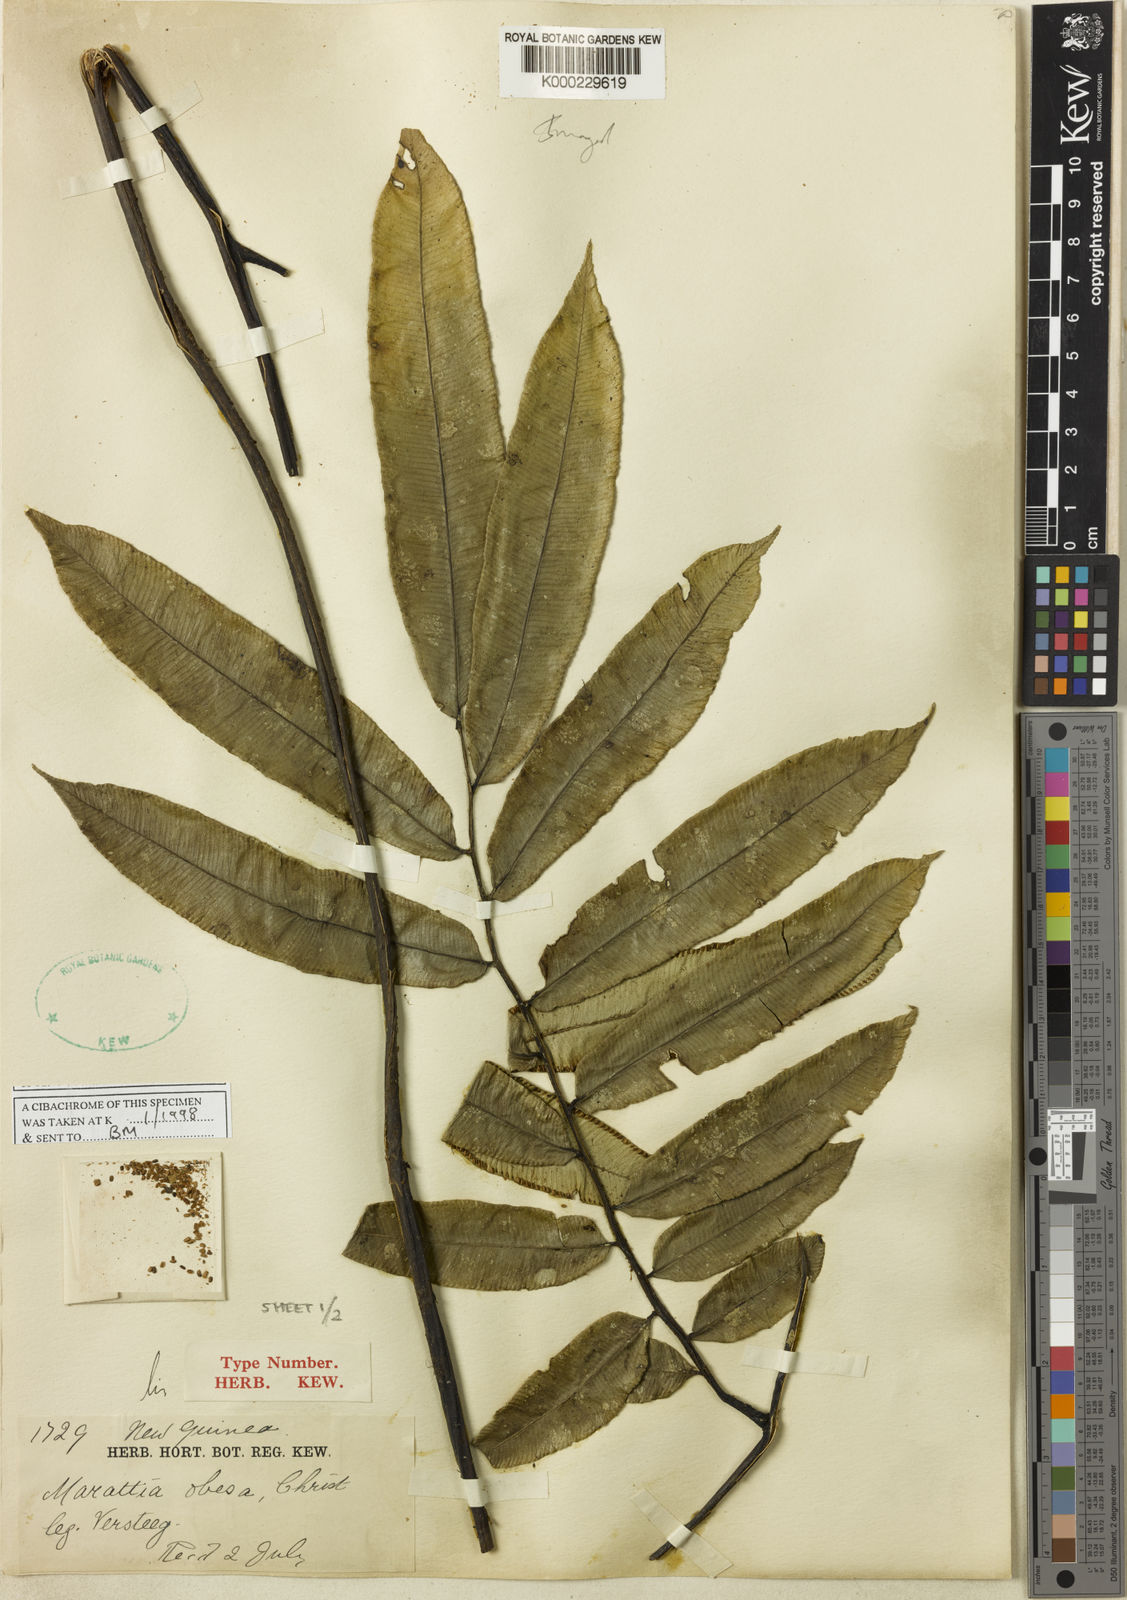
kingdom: Plantae
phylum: Tracheophyta
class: Polypodiopsida
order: Marattiales
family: Marattiaceae
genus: Ptisana
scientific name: Ptisana obesa
